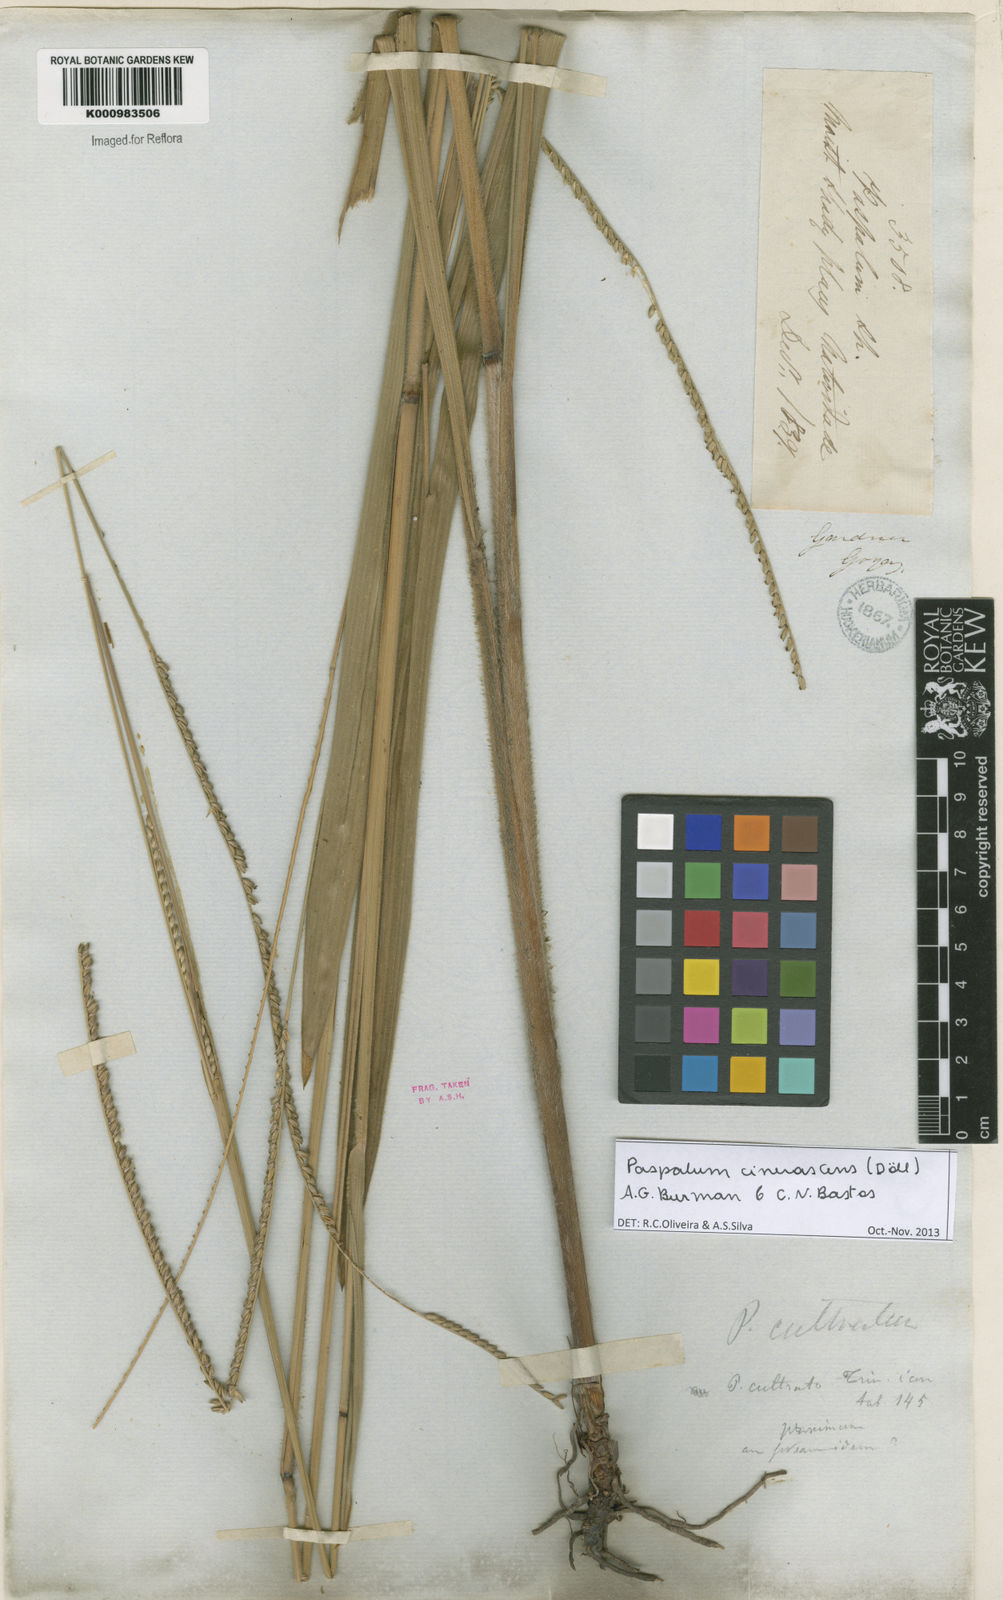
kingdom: Plantae
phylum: Tracheophyta
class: Liliopsida
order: Poales
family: Poaceae
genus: Paspalum
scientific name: Paspalum
